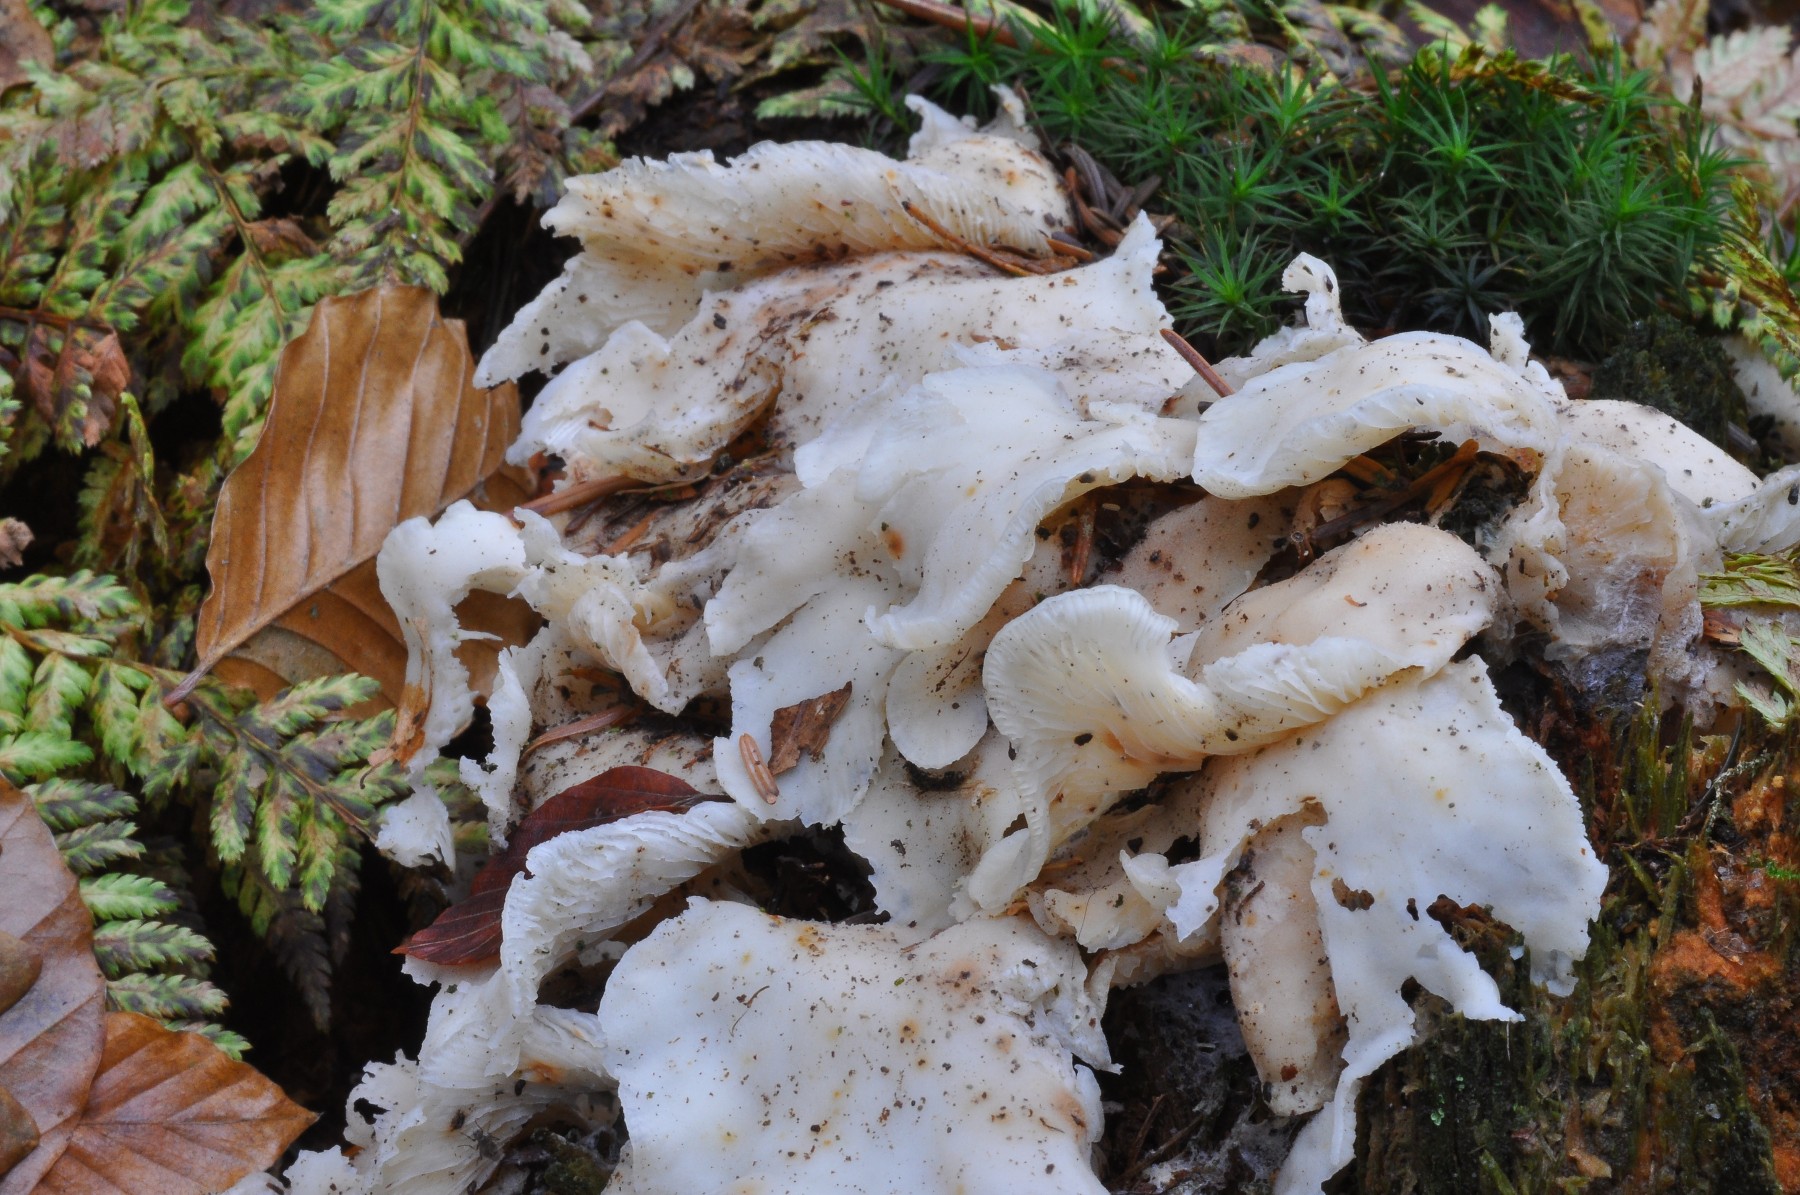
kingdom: Fungi
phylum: Basidiomycota
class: Agaricomycetes
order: Agaricales
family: Marasmiaceae
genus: Pleurocybella
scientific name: Pleurocybella porrigens
